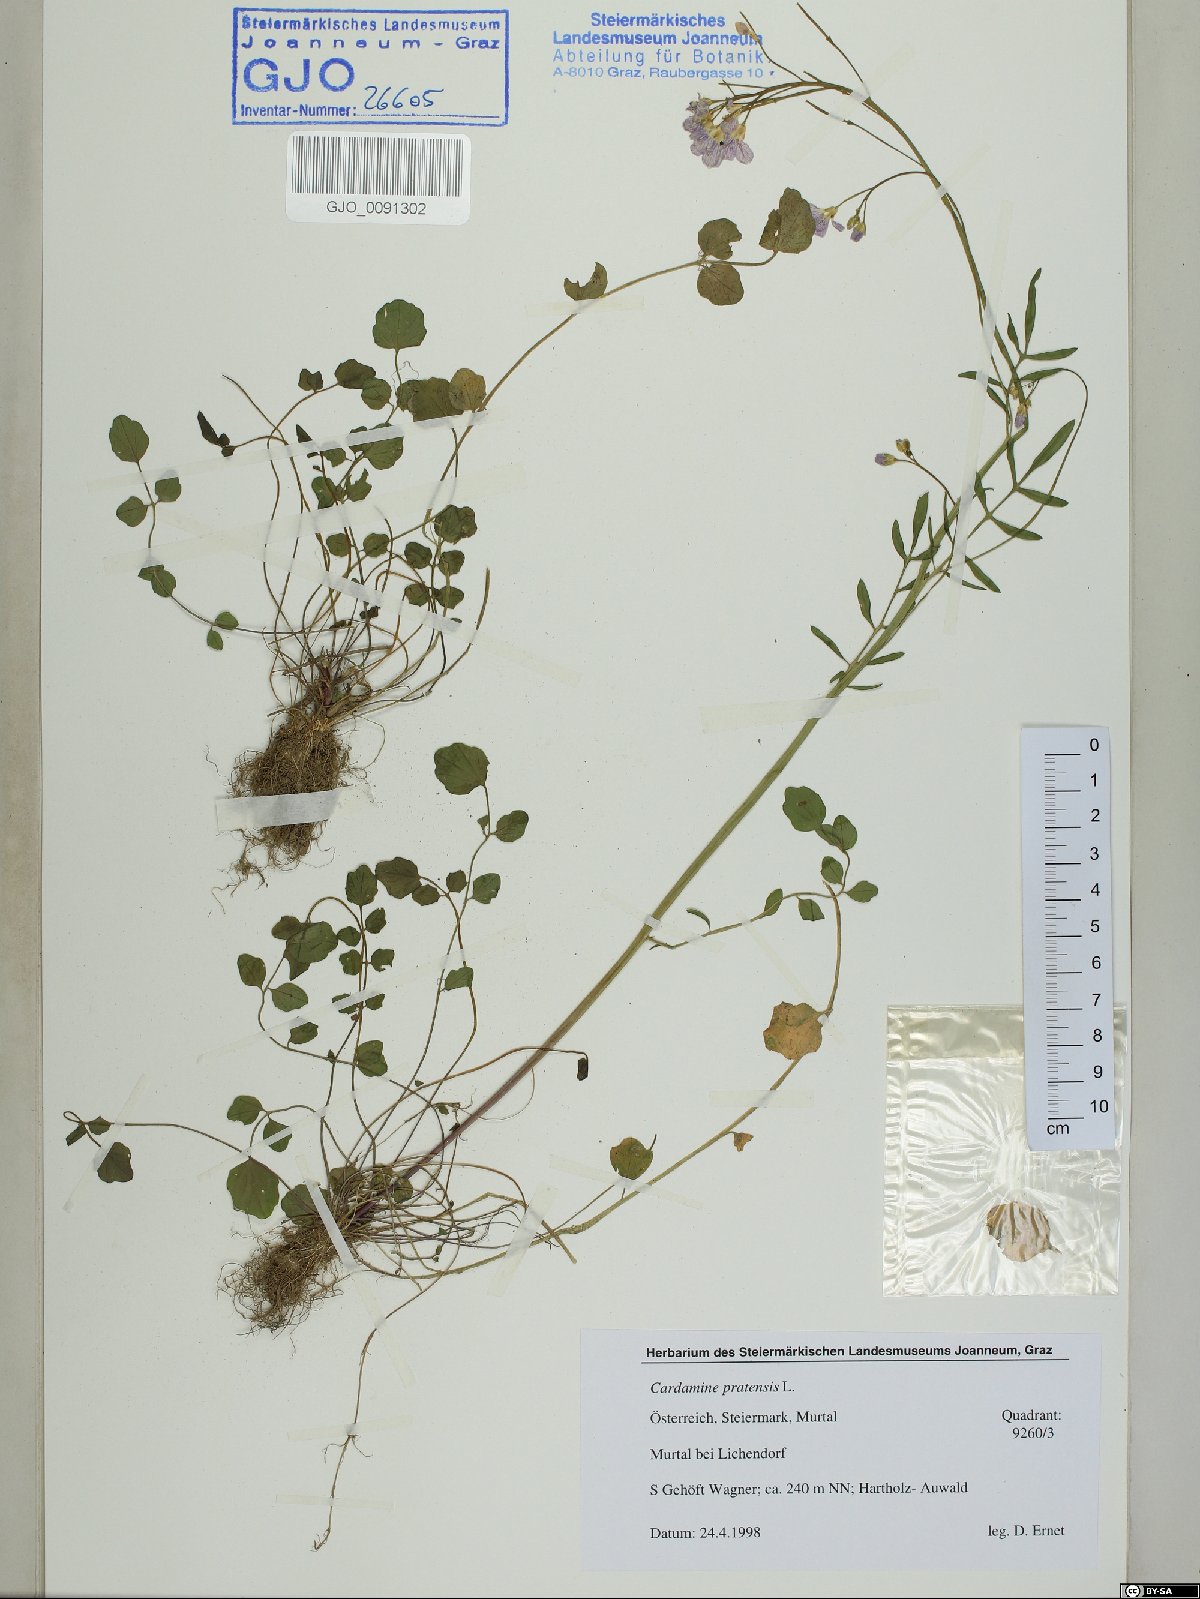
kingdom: Plantae
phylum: Tracheophyta
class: Magnoliopsida
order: Brassicales
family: Brassicaceae
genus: Cardamine
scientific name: Cardamine pratensis
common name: Cuckoo flower
